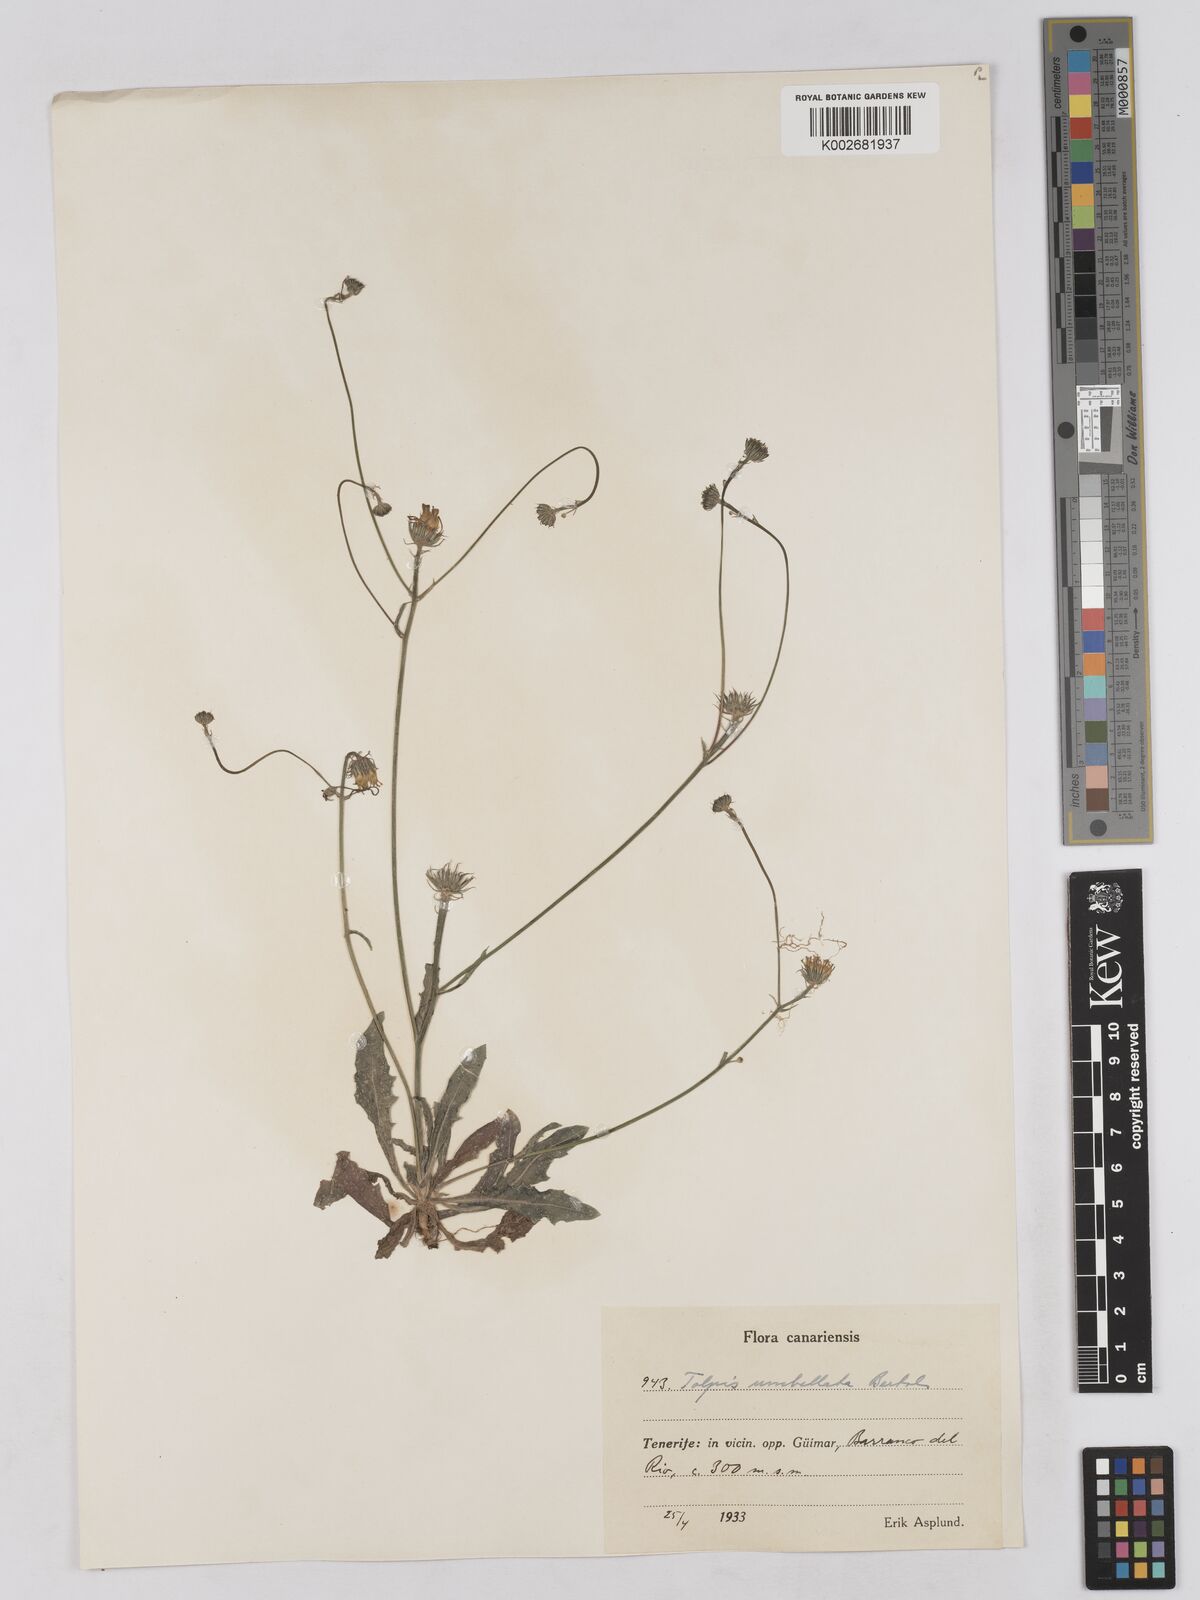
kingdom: Plantae
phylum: Tracheophyta
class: Magnoliopsida
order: Asterales
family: Asteraceae
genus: Tolpis
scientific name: Tolpis umbellata
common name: Yellow hawkweed
